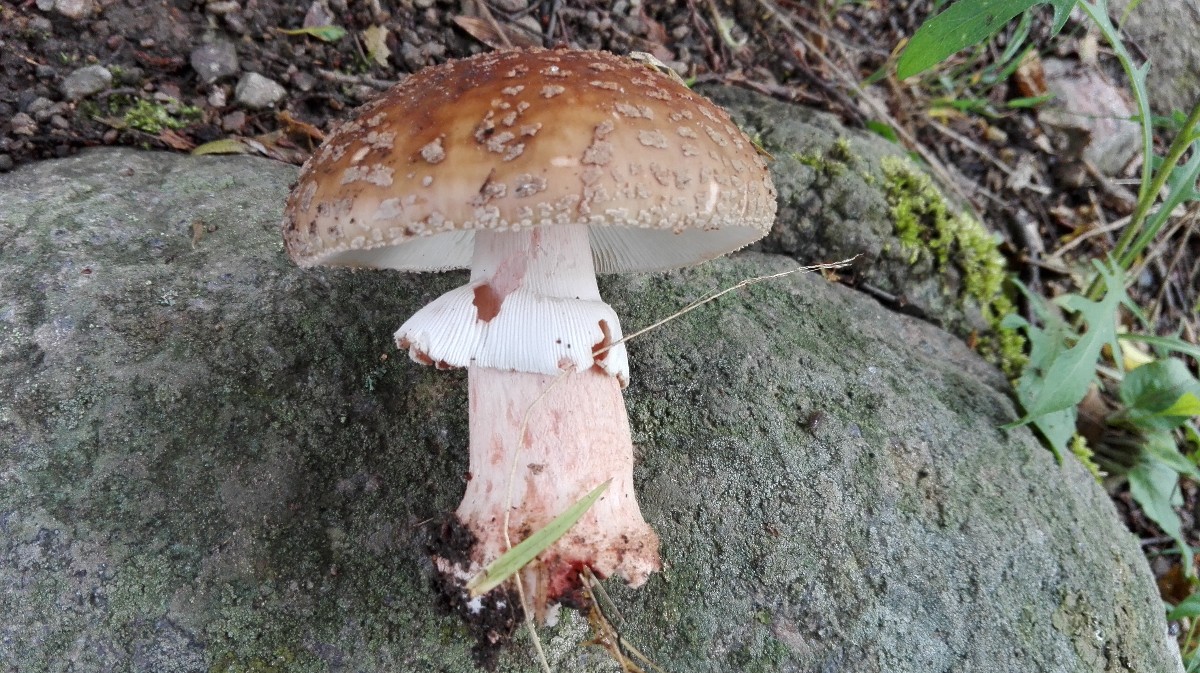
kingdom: Fungi
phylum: Basidiomycota
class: Agaricomycetes
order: Agaricales
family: Amanitaceae
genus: Amanita
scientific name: Amanita rubescens
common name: rødmende fluesvamp
